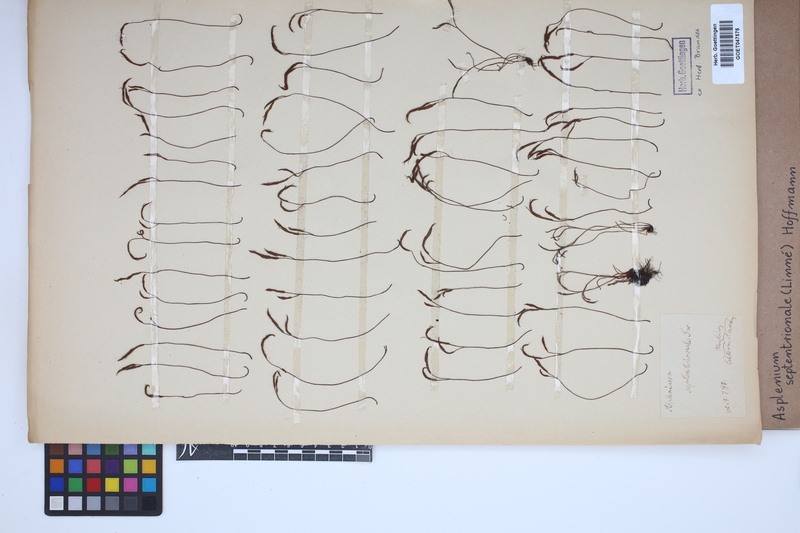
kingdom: Plantae
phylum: Tracheophyta
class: Polypodiopsida
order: Polypodiales
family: Aspleniaceae
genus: Asplenium
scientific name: Asplenium septentrionale
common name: Forked spleenwort
